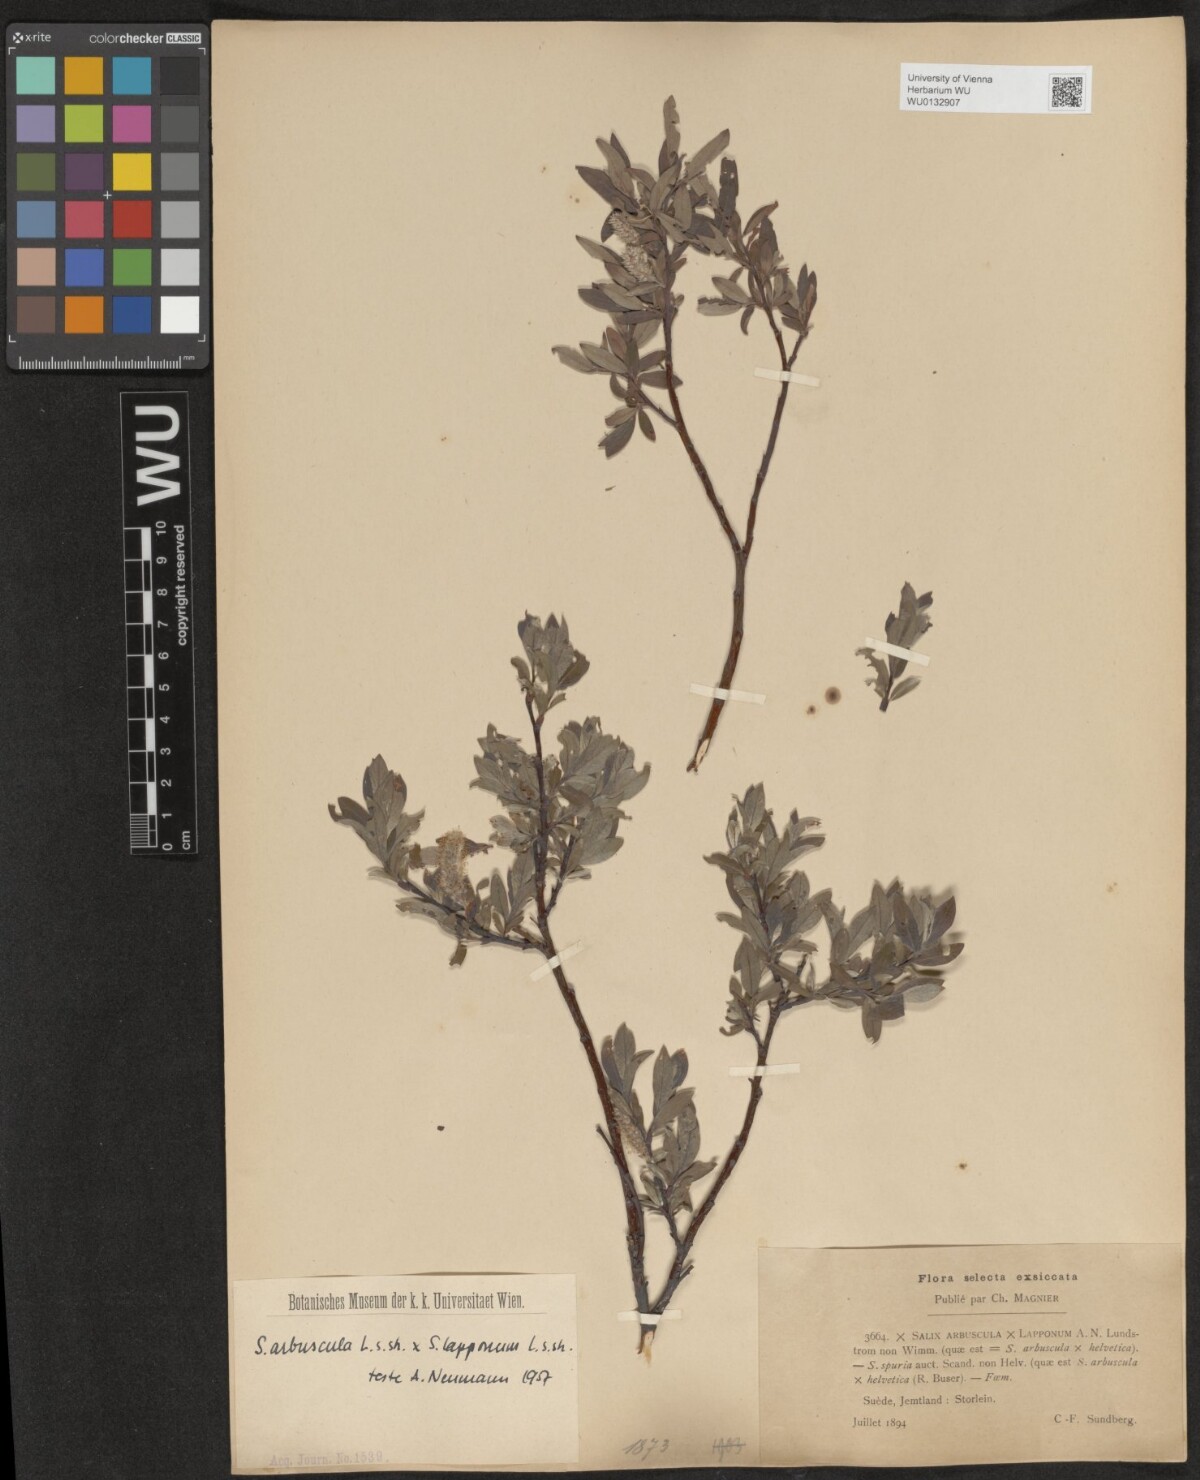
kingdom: Plantae
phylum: Tracheophyta
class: Magnoliopsida
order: Malpighiales
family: Salicaceae
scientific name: Salicaceae
